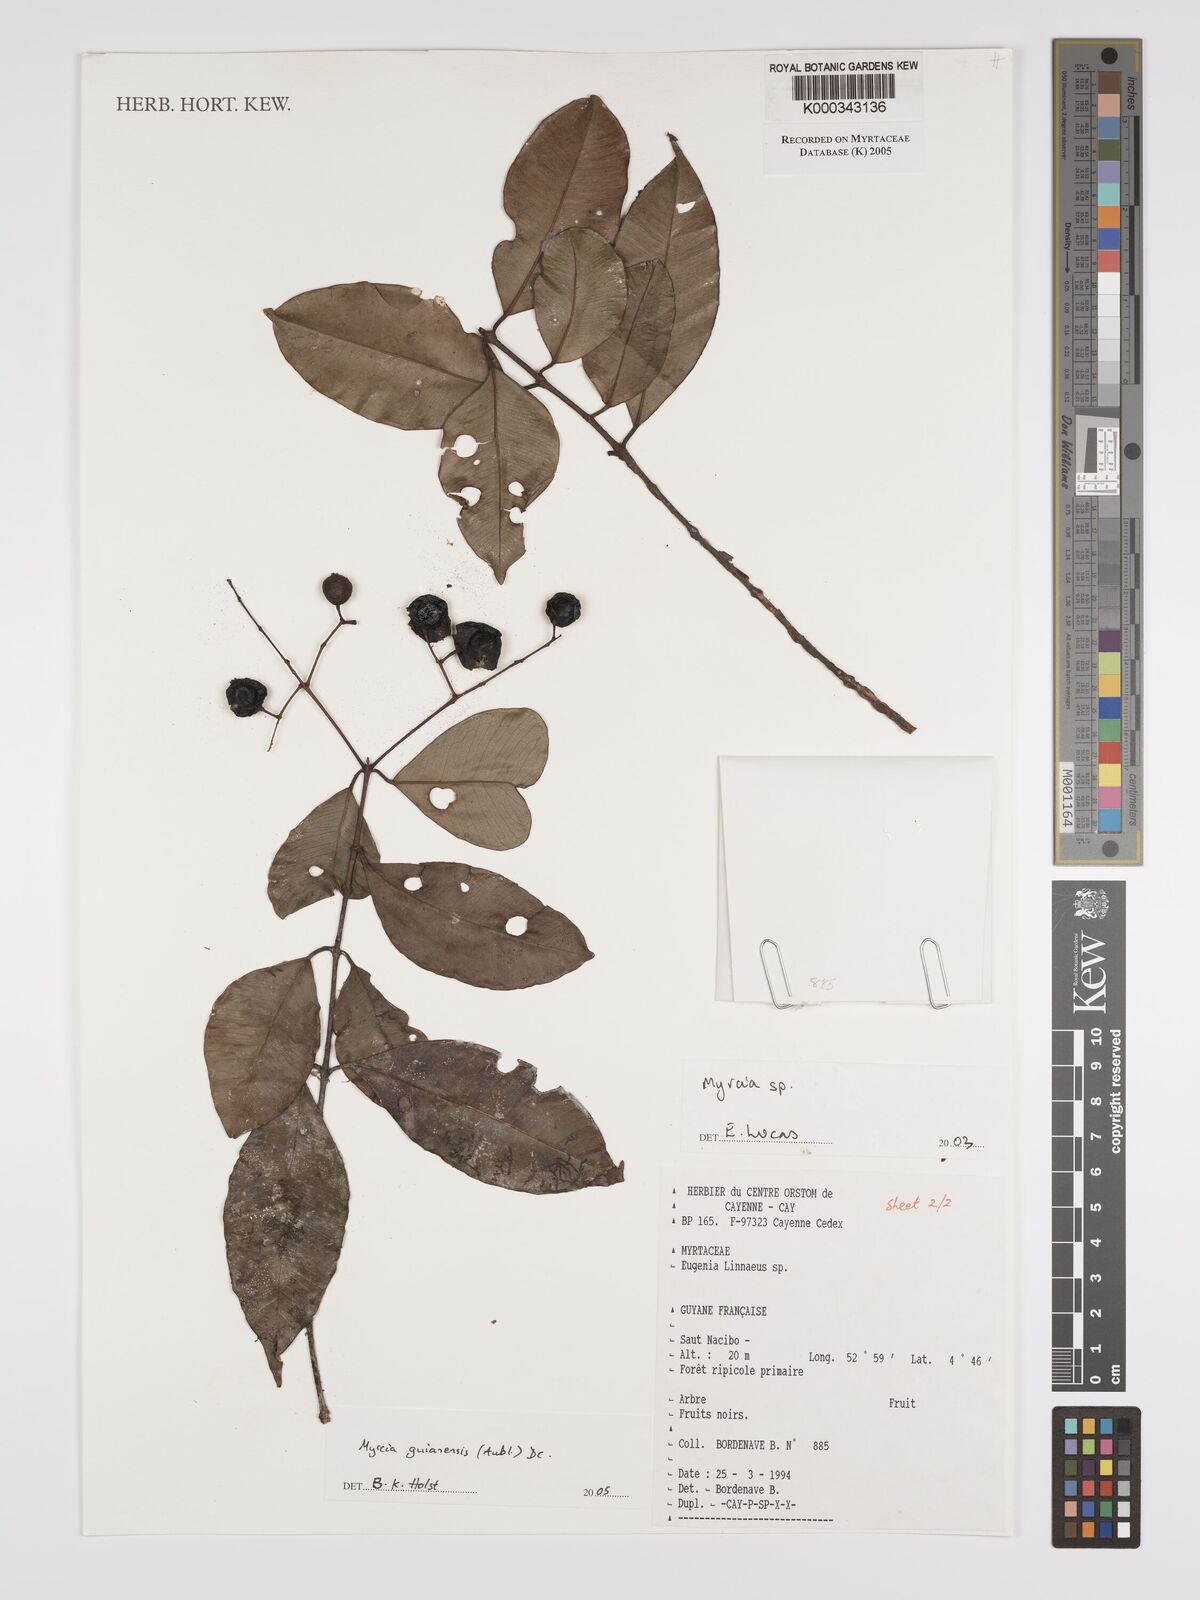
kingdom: Plantae
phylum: Tracheophyta
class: Magnoliopsida
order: Myrtales
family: Myrtaceae
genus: Myrcia
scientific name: Myrcia guianensis
